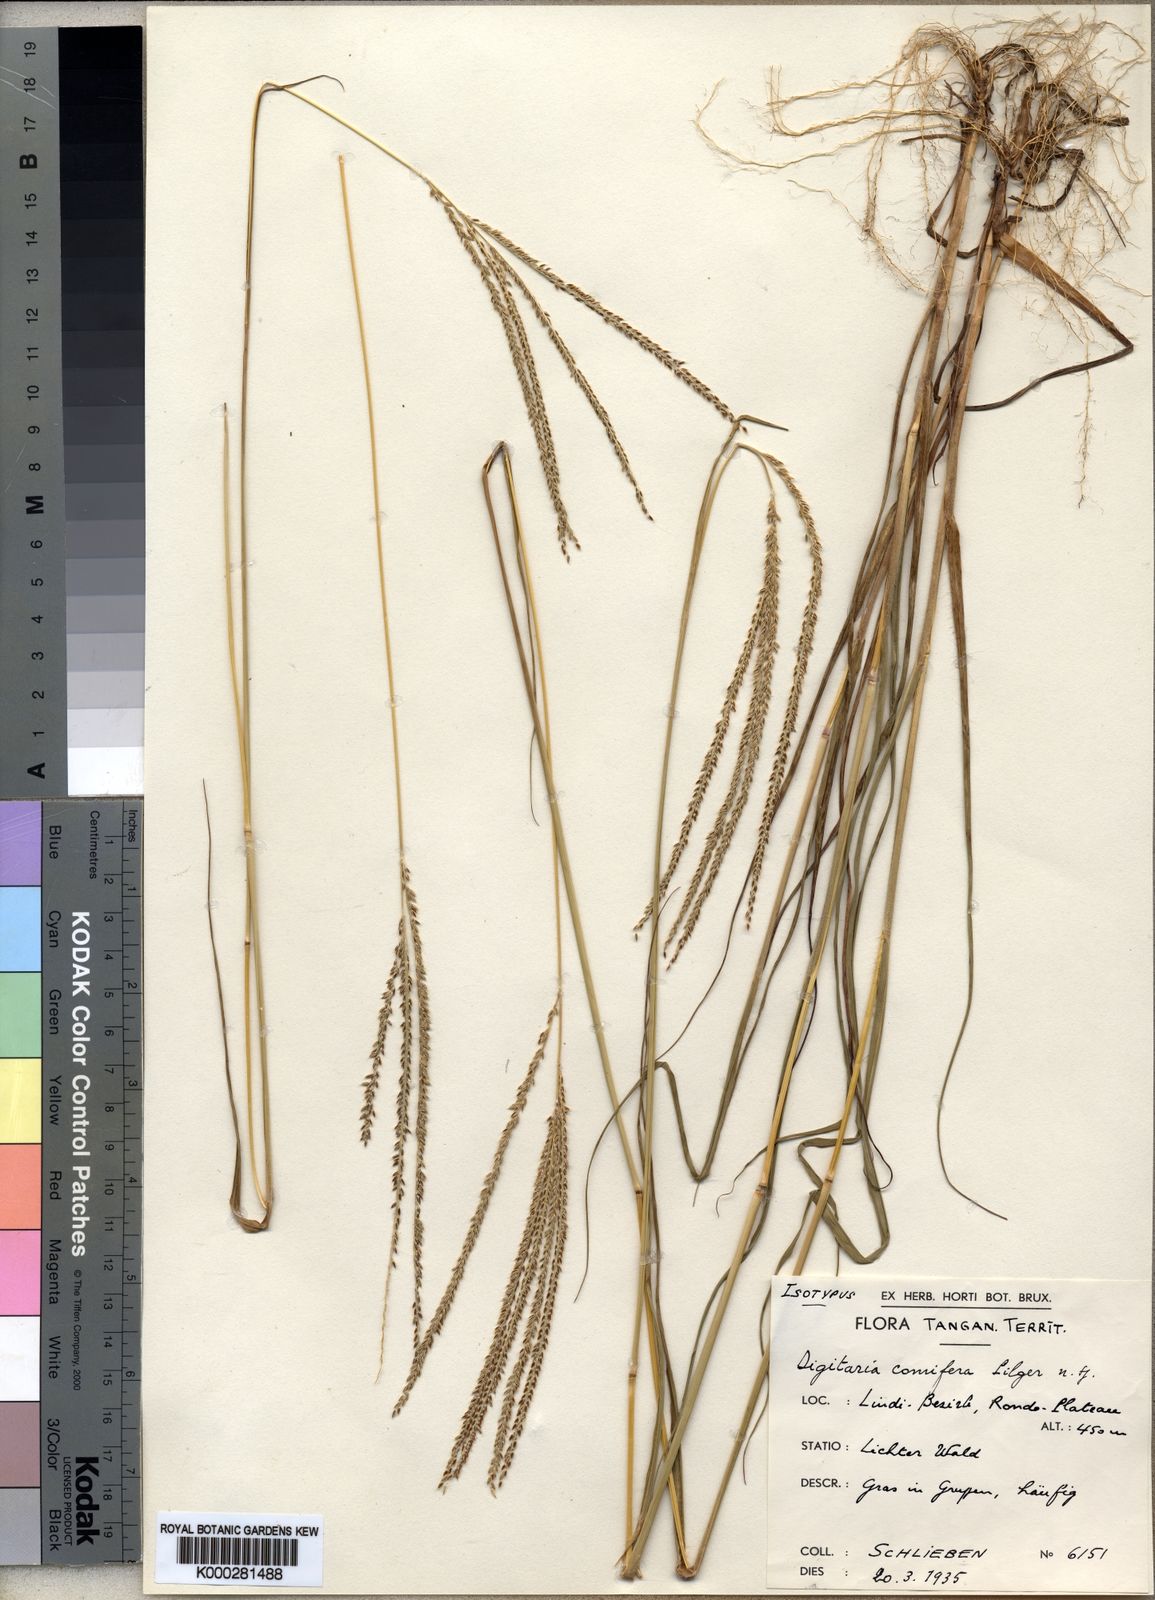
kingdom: Plantae
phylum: Tracheophyta
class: Liliopsida
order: Poales
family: Poaceae
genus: Digitaria
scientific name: Digitaria comifera
